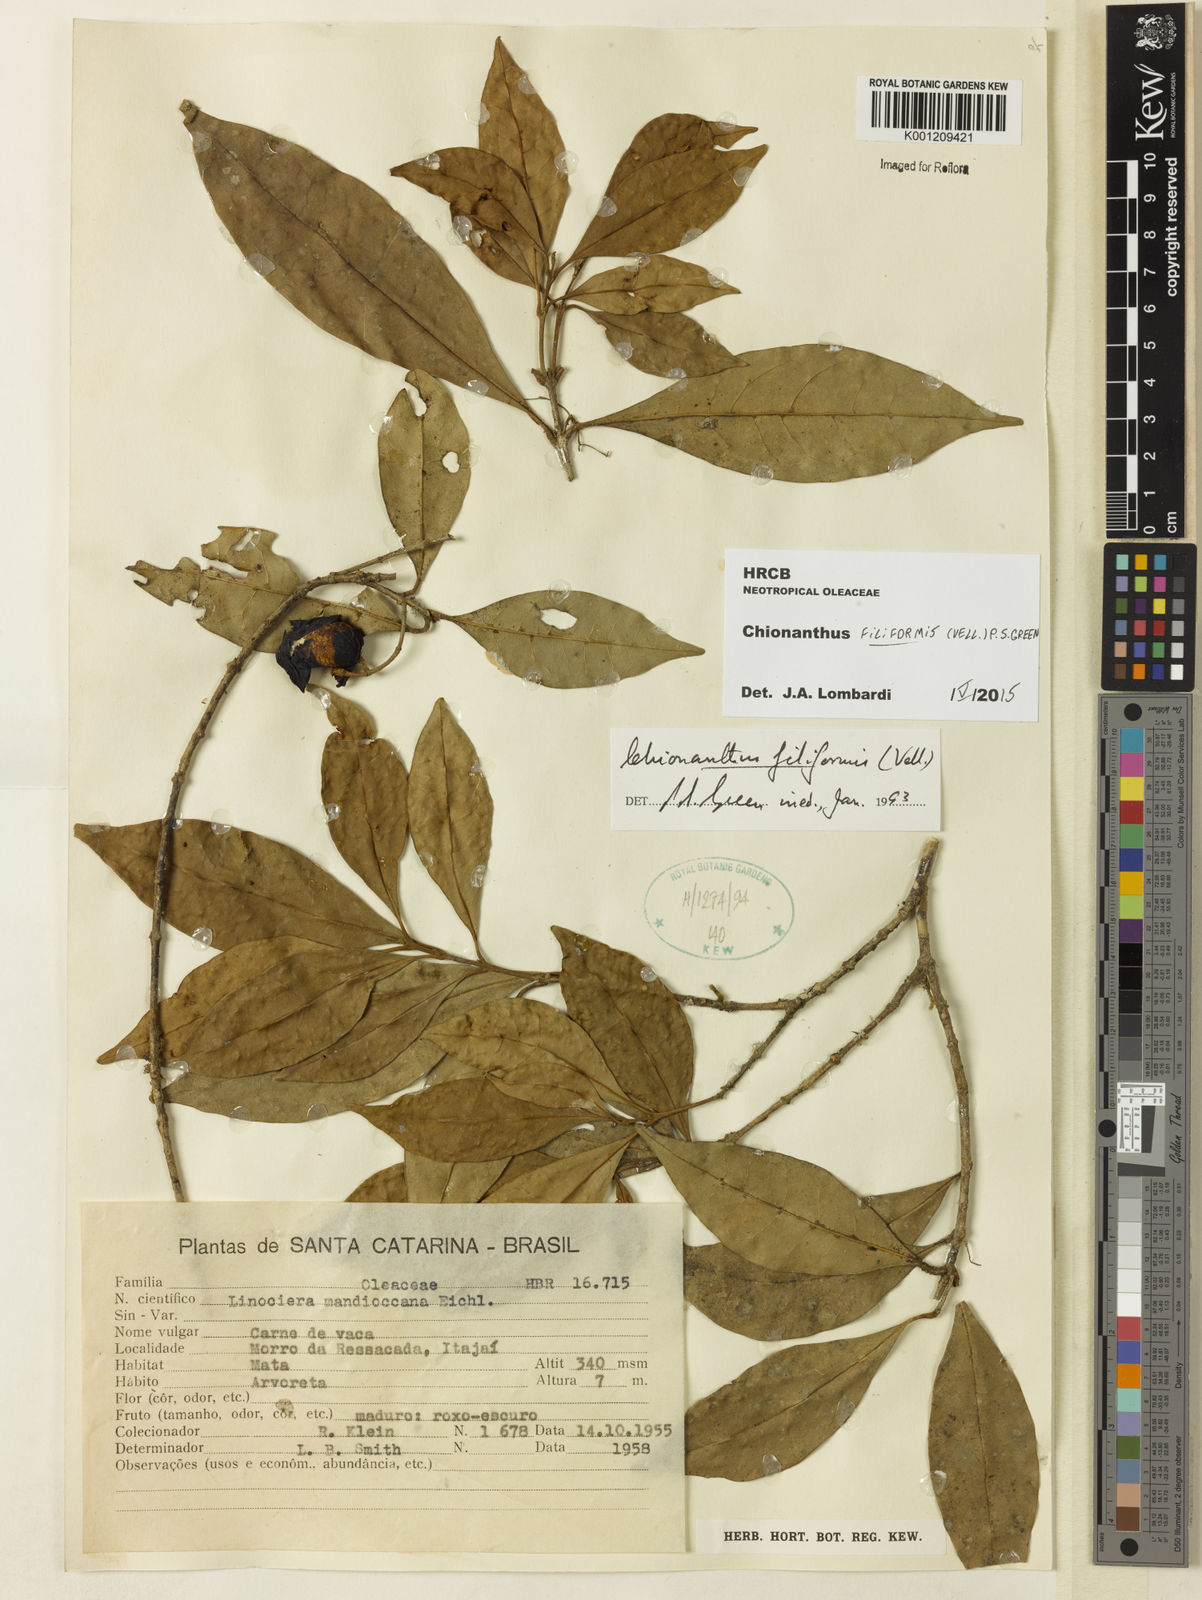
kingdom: Plantae
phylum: Tracheophyta
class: Magnoliopsida
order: Lamiales
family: Oleaceae
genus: Chionanthus
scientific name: Chionanthus filiformis
